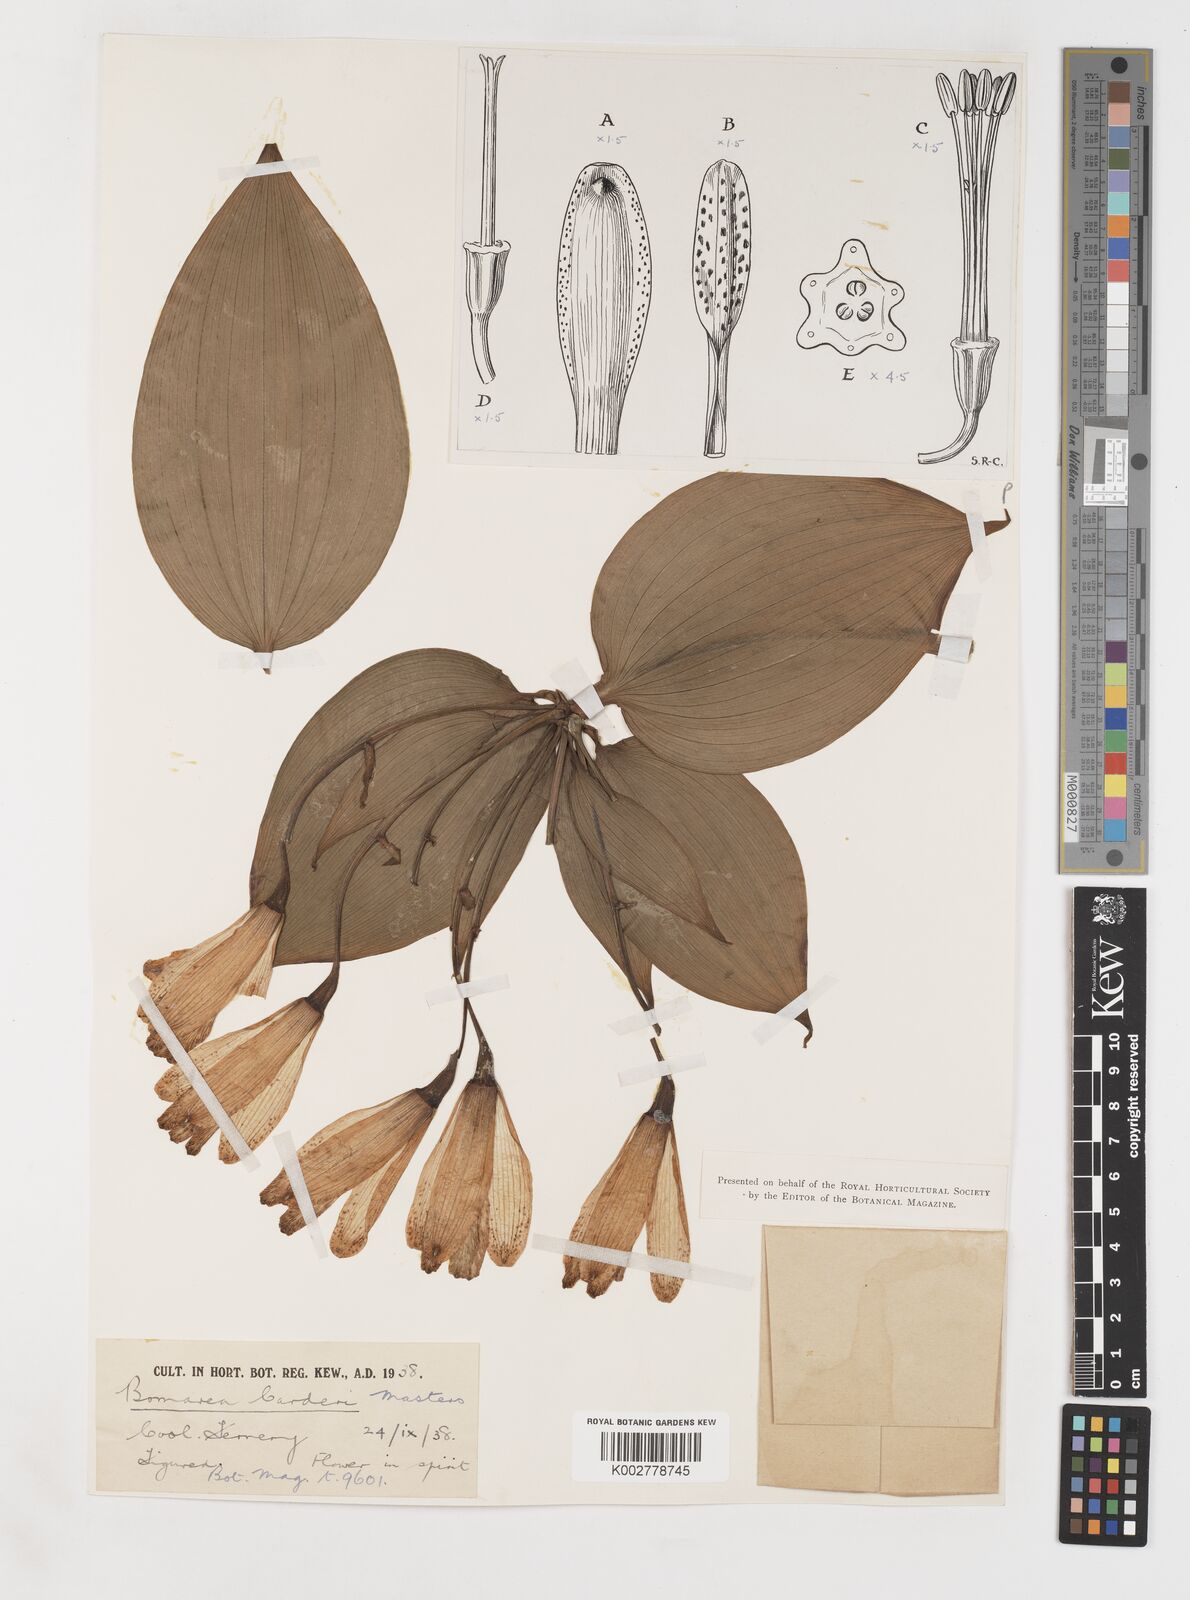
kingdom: Plantae
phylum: Tracheophyta
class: Liliopsida
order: Liliales
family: Alstroemeriaceae
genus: Bomarea
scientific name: Bomarea carderi
